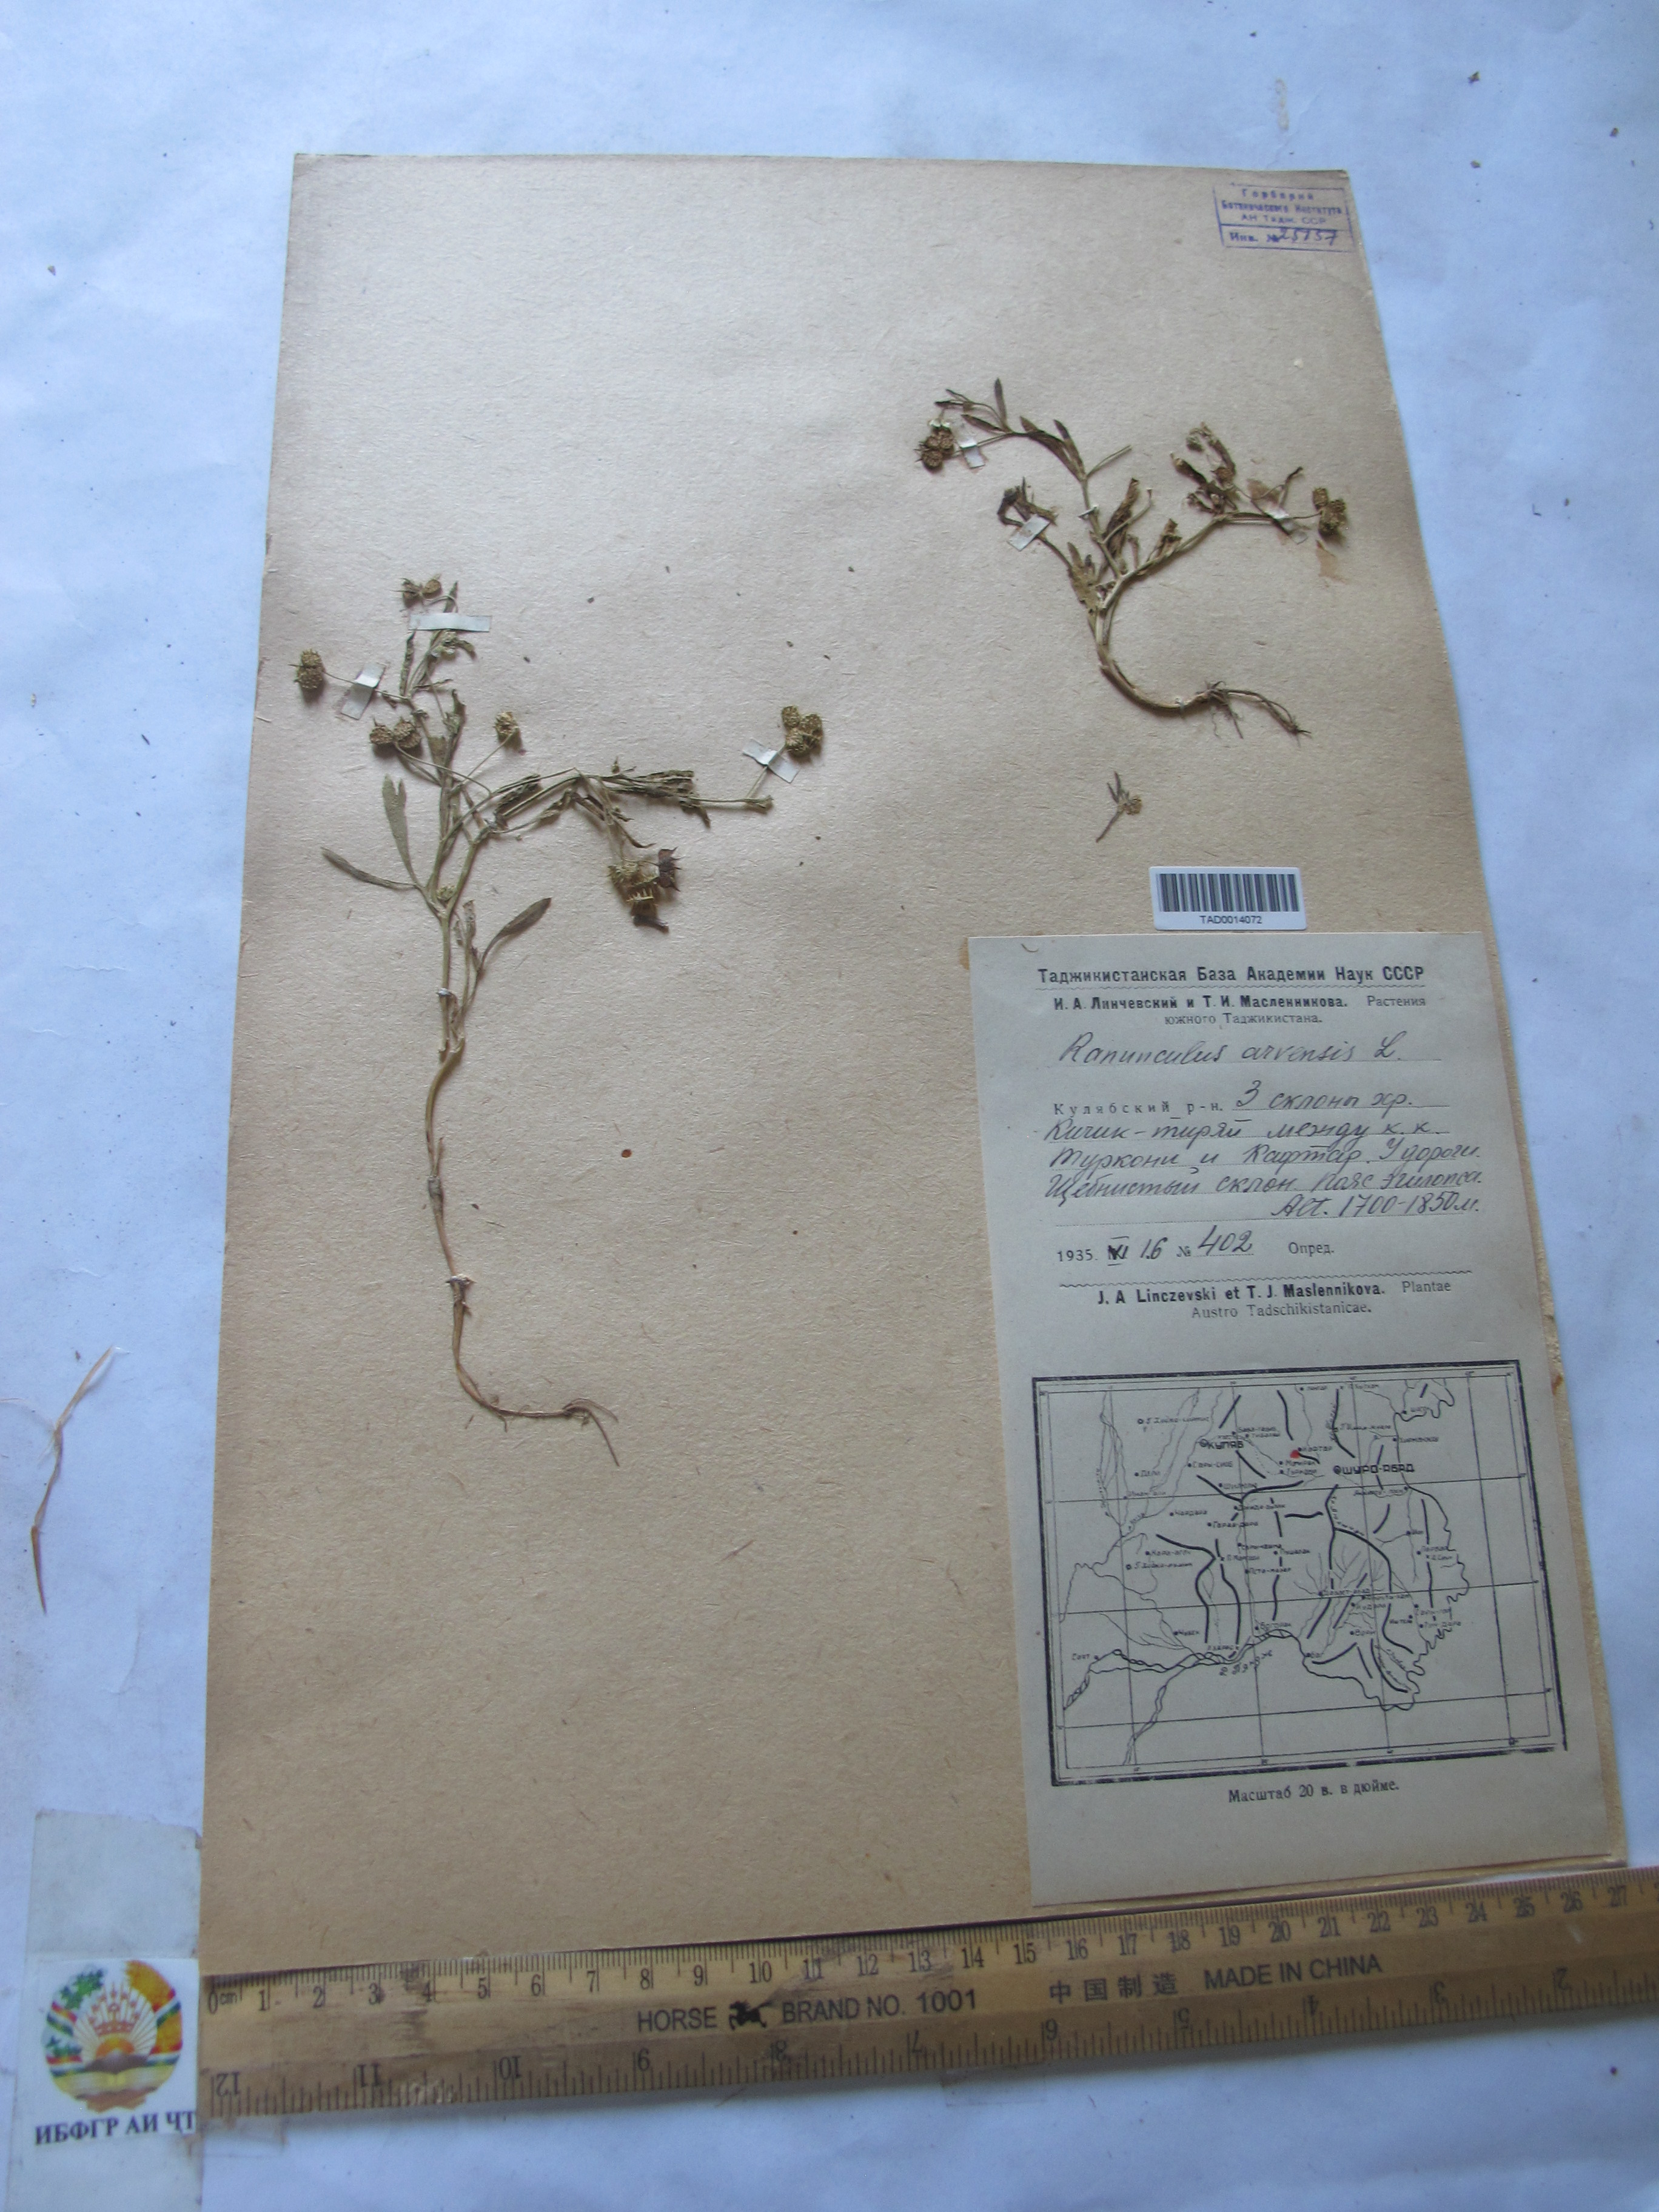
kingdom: Plantae
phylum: Tracheophyta
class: Magnoliopsida
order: Ranunculales
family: Ranunculaceae
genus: Ranunculus
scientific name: Ranunculus arvensis
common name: Corn buttercup
